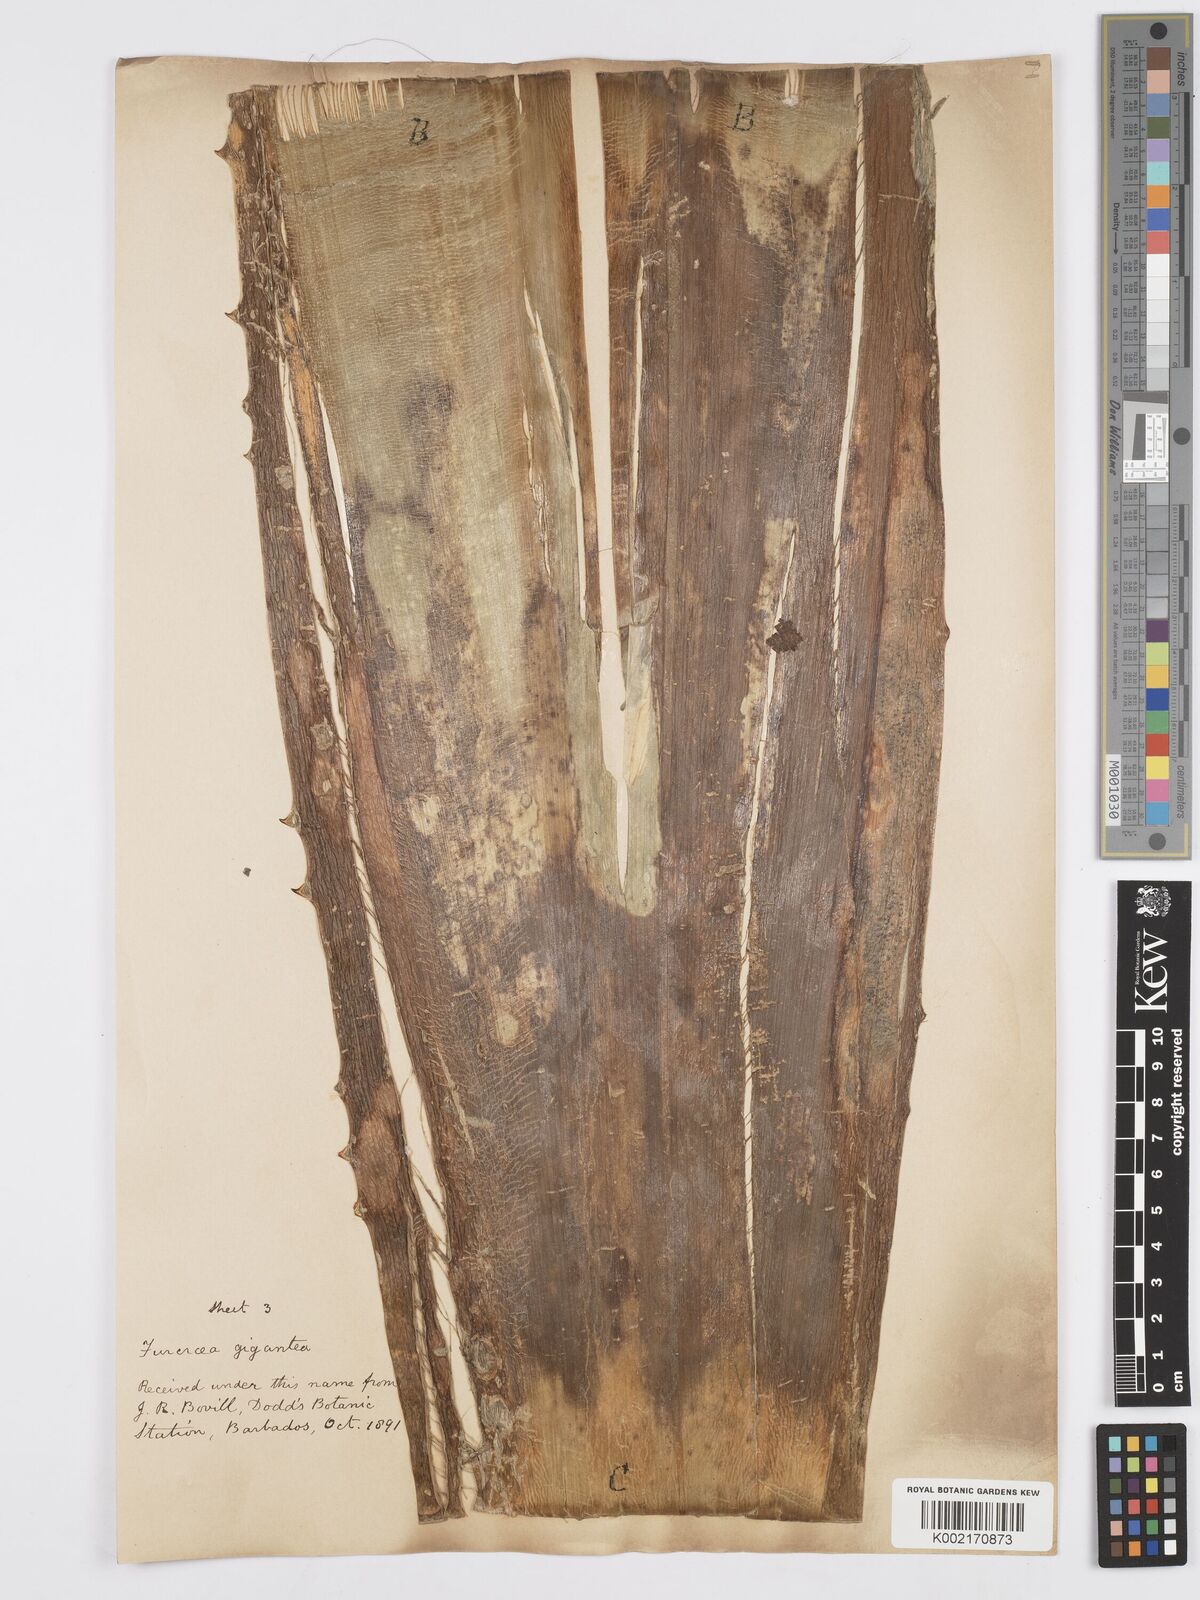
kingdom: Plantae
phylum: Tracheophyta
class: Liliopsida
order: Asparagales
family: Asparagaceae
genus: Furcraea
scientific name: Furcraea foetida
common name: Mauritius hemp
